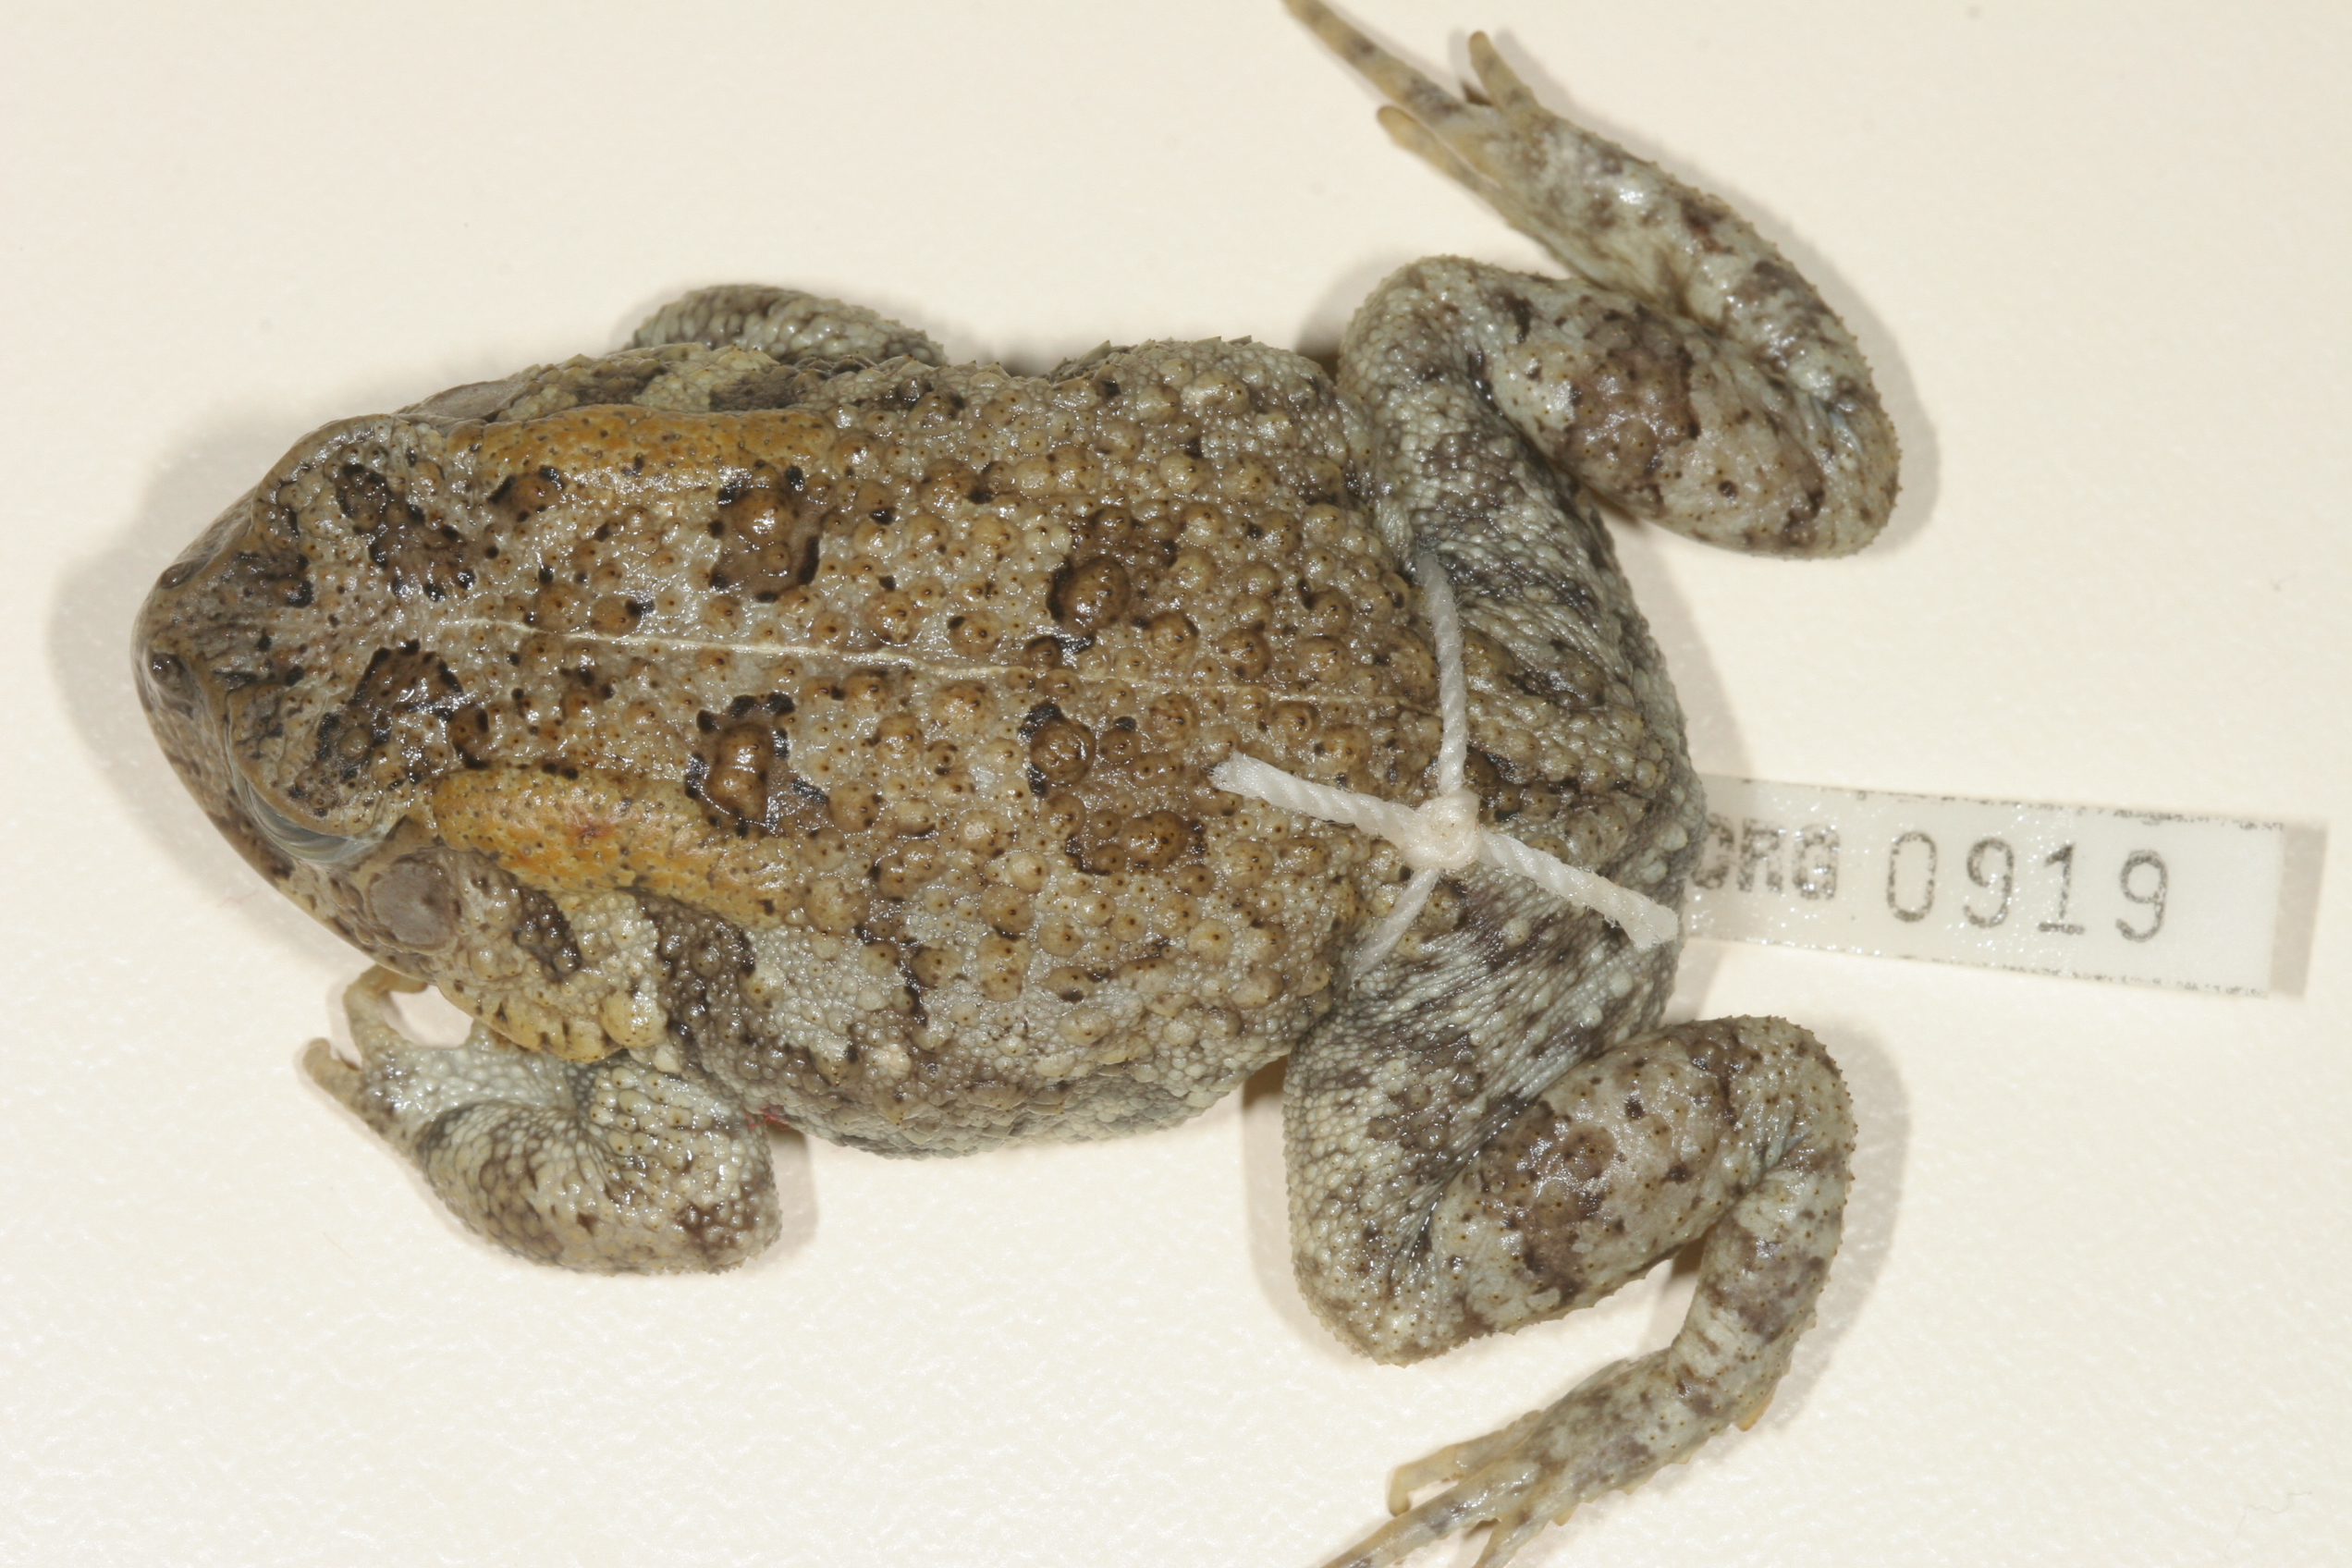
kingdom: Animalia
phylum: Chordata
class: Amphibia
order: Anura
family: Bufonidae
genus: Sclerophrys
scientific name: Sclerophrys maculata
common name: Hallowell's toad
